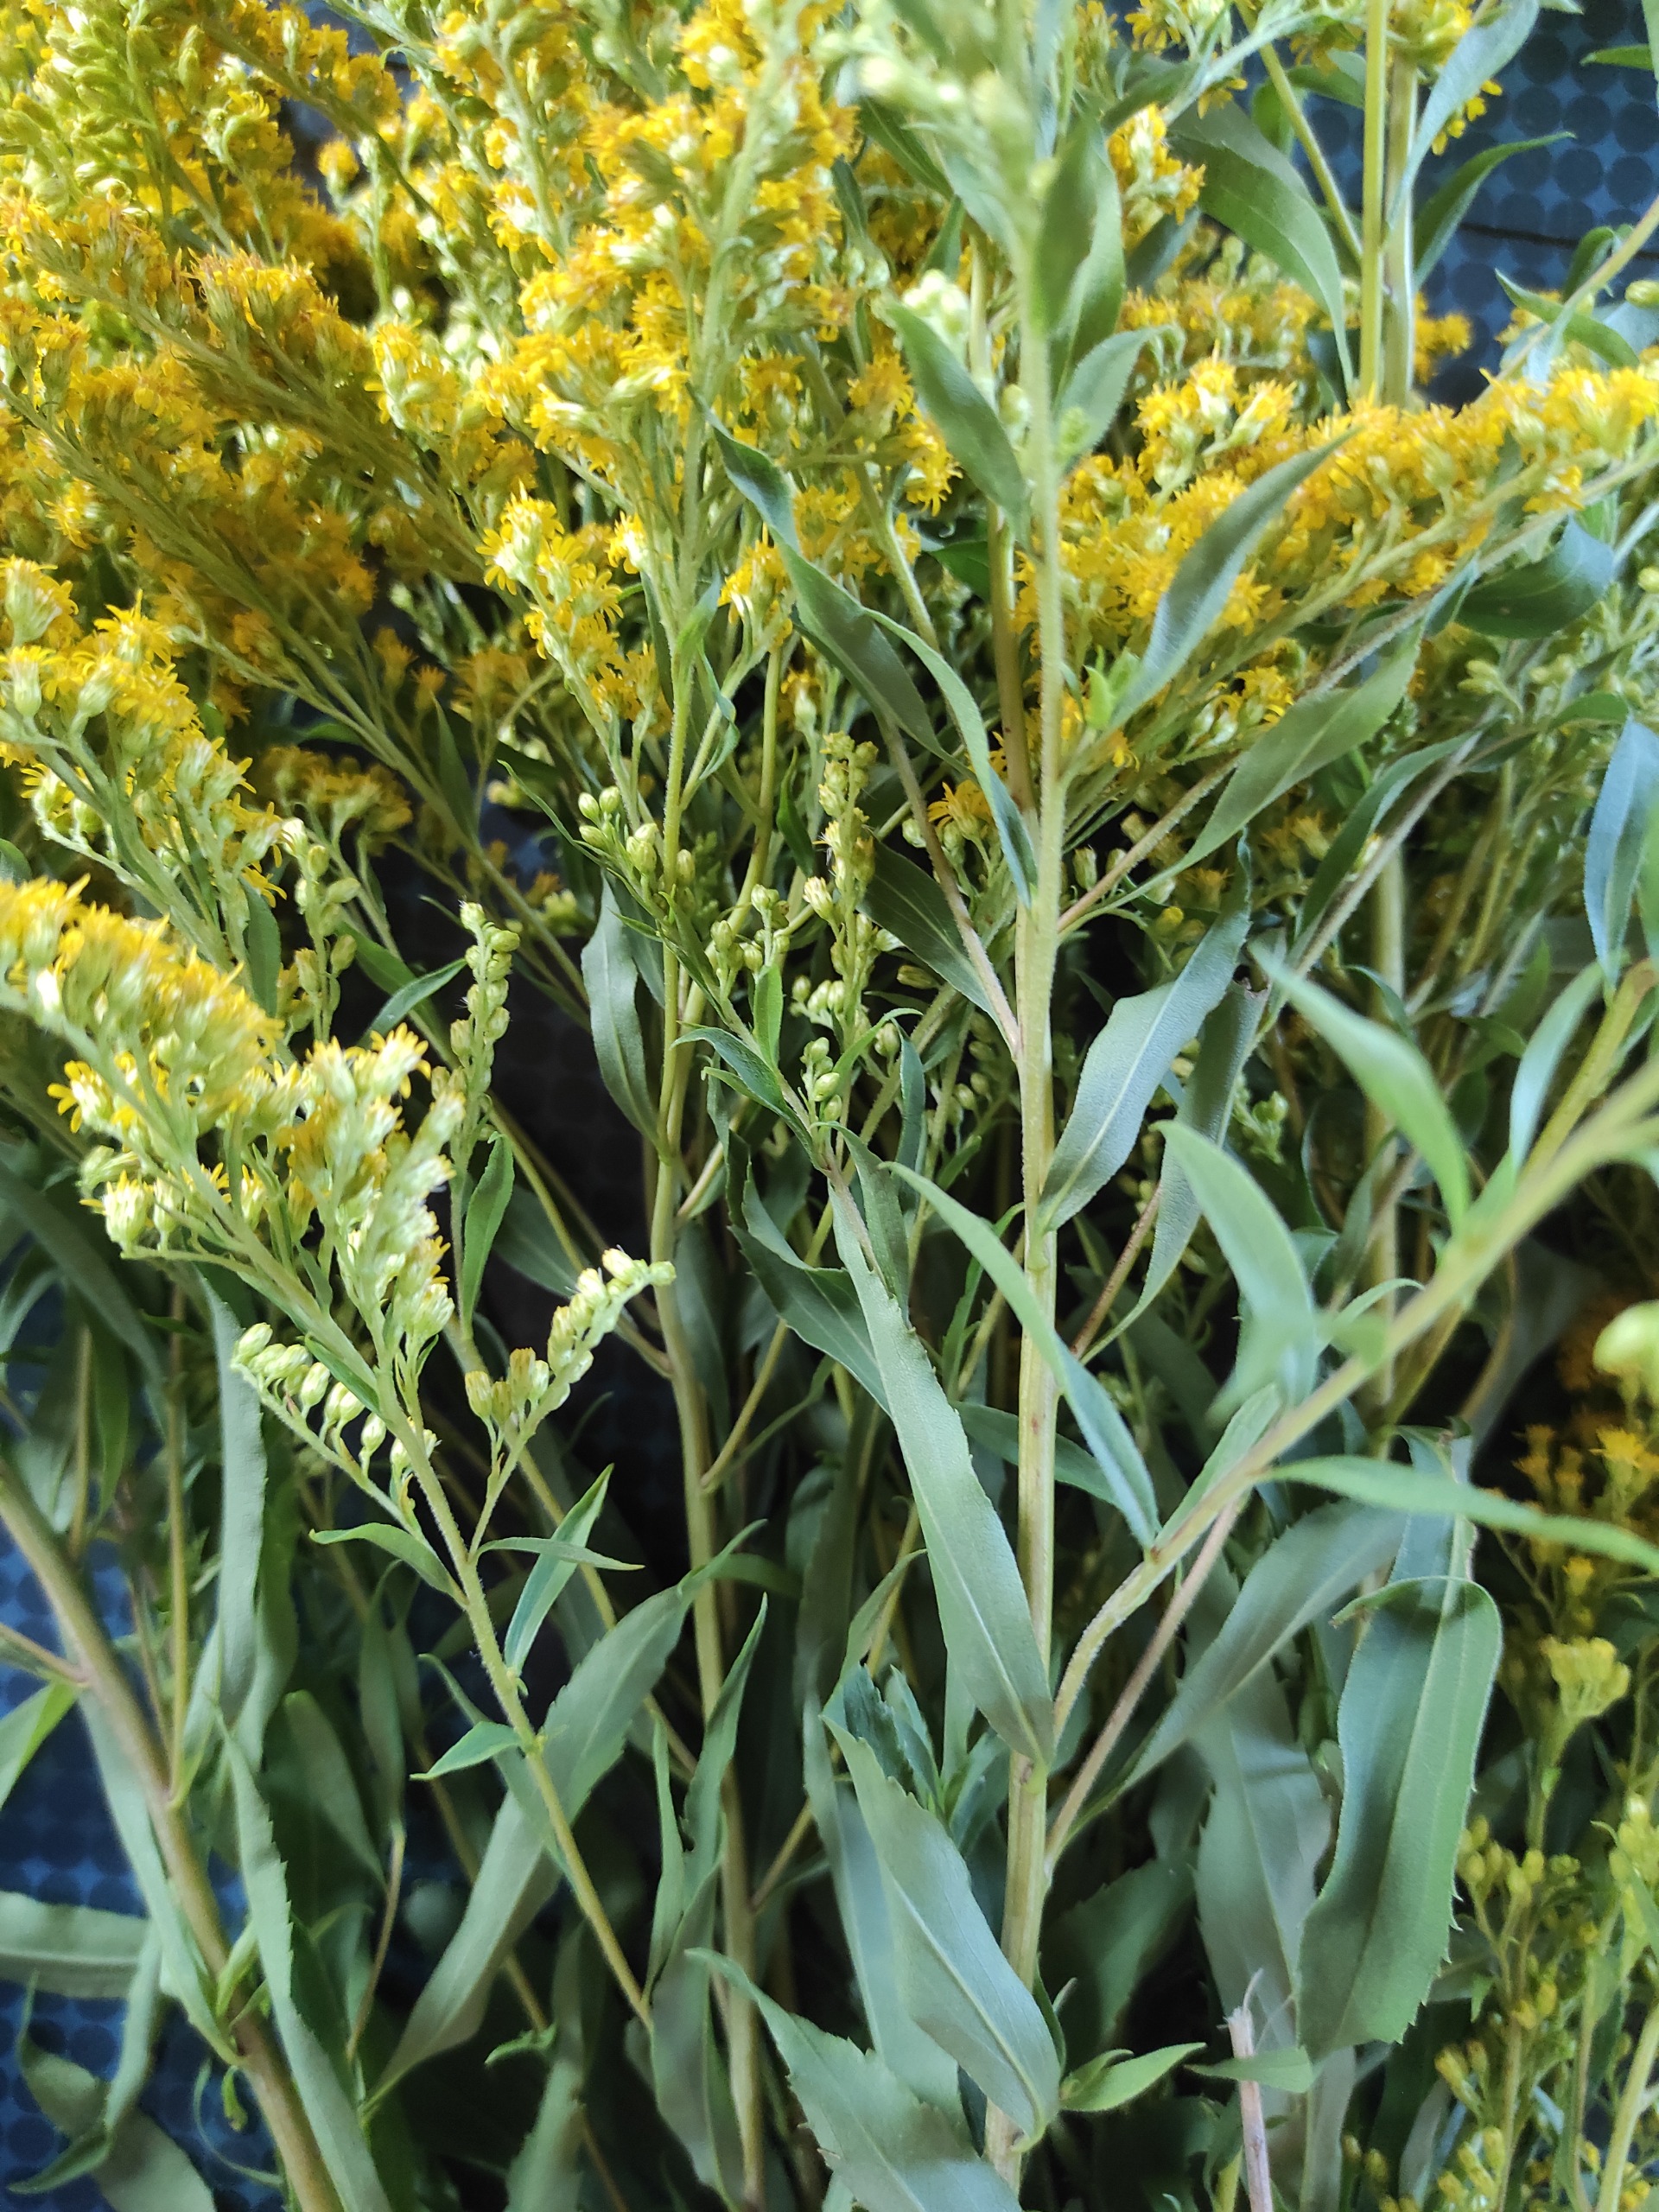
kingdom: Plantae
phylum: Tracheophyta
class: Magnoliopsida
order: Asterales
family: Asteraceae
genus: Solidago
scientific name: Solidago canadensis
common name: Kanadisk gyldenris
